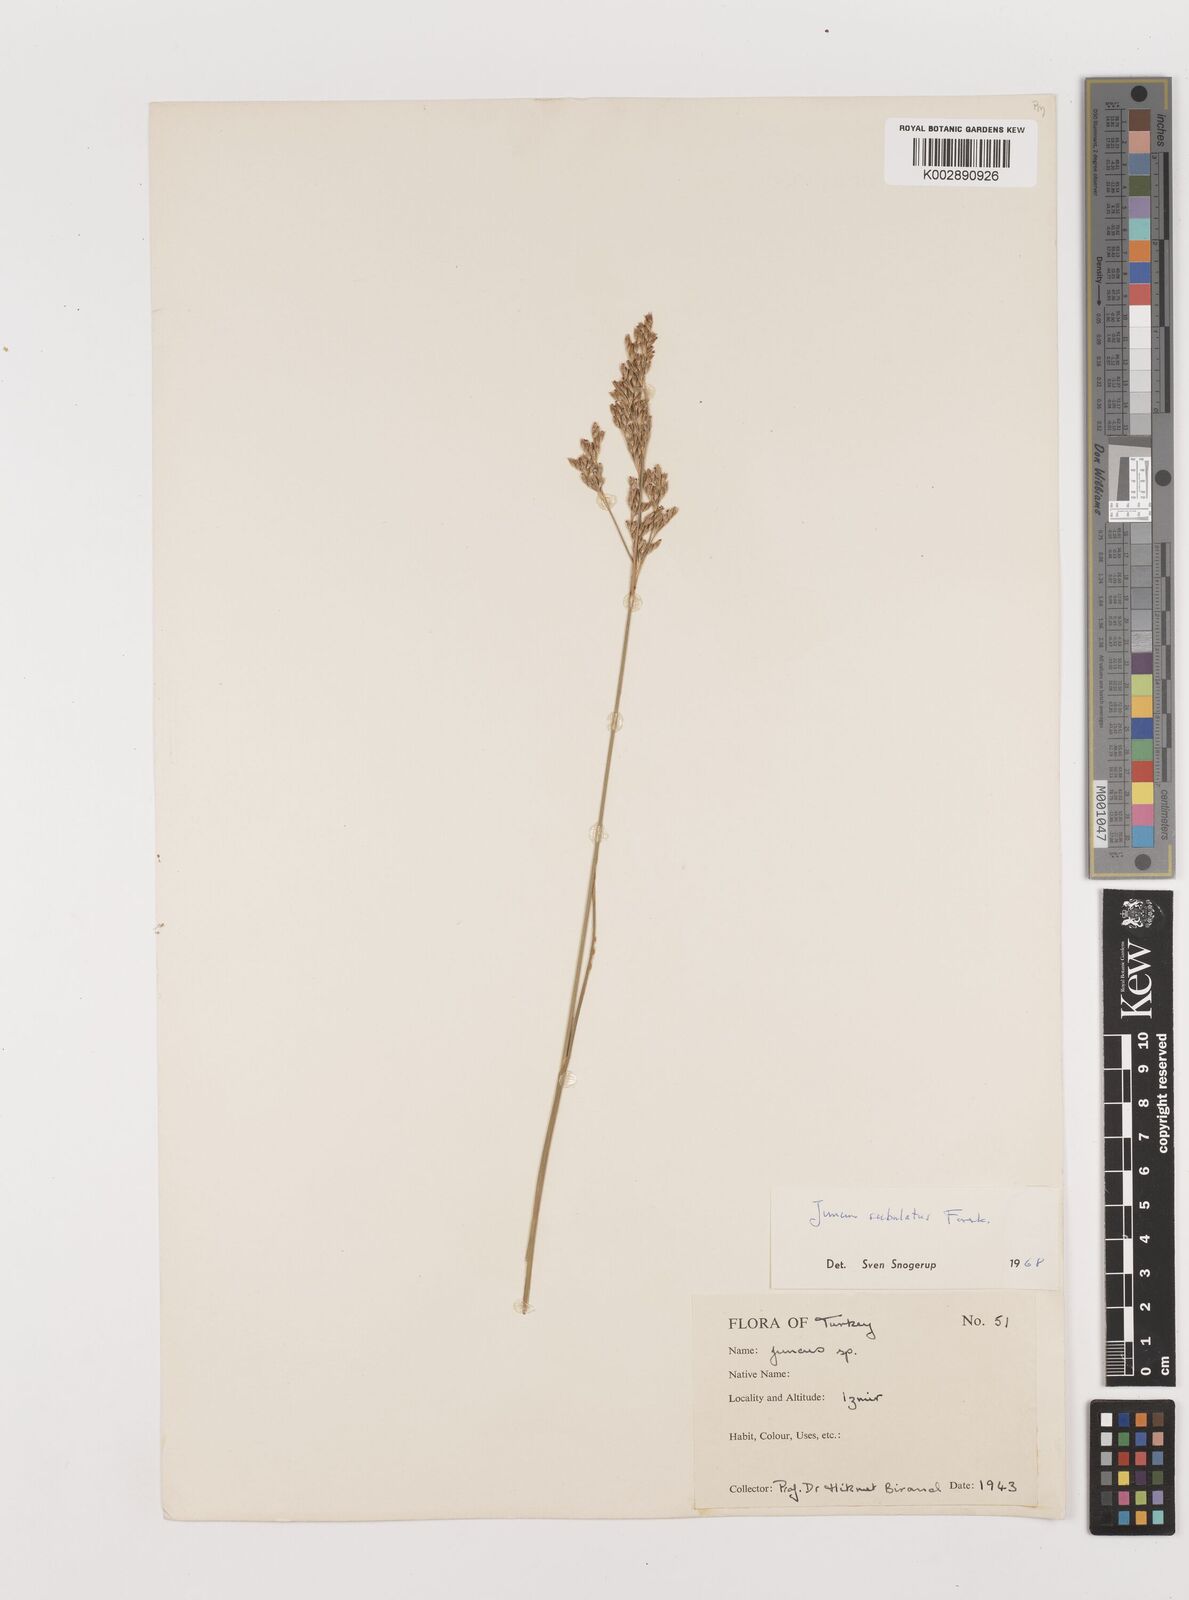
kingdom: Plantae
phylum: Tracheophyta
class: Liliopsida
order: Poales
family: Juncaceae
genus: Juncus
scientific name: Juncus subulatus
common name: Somerset rush
